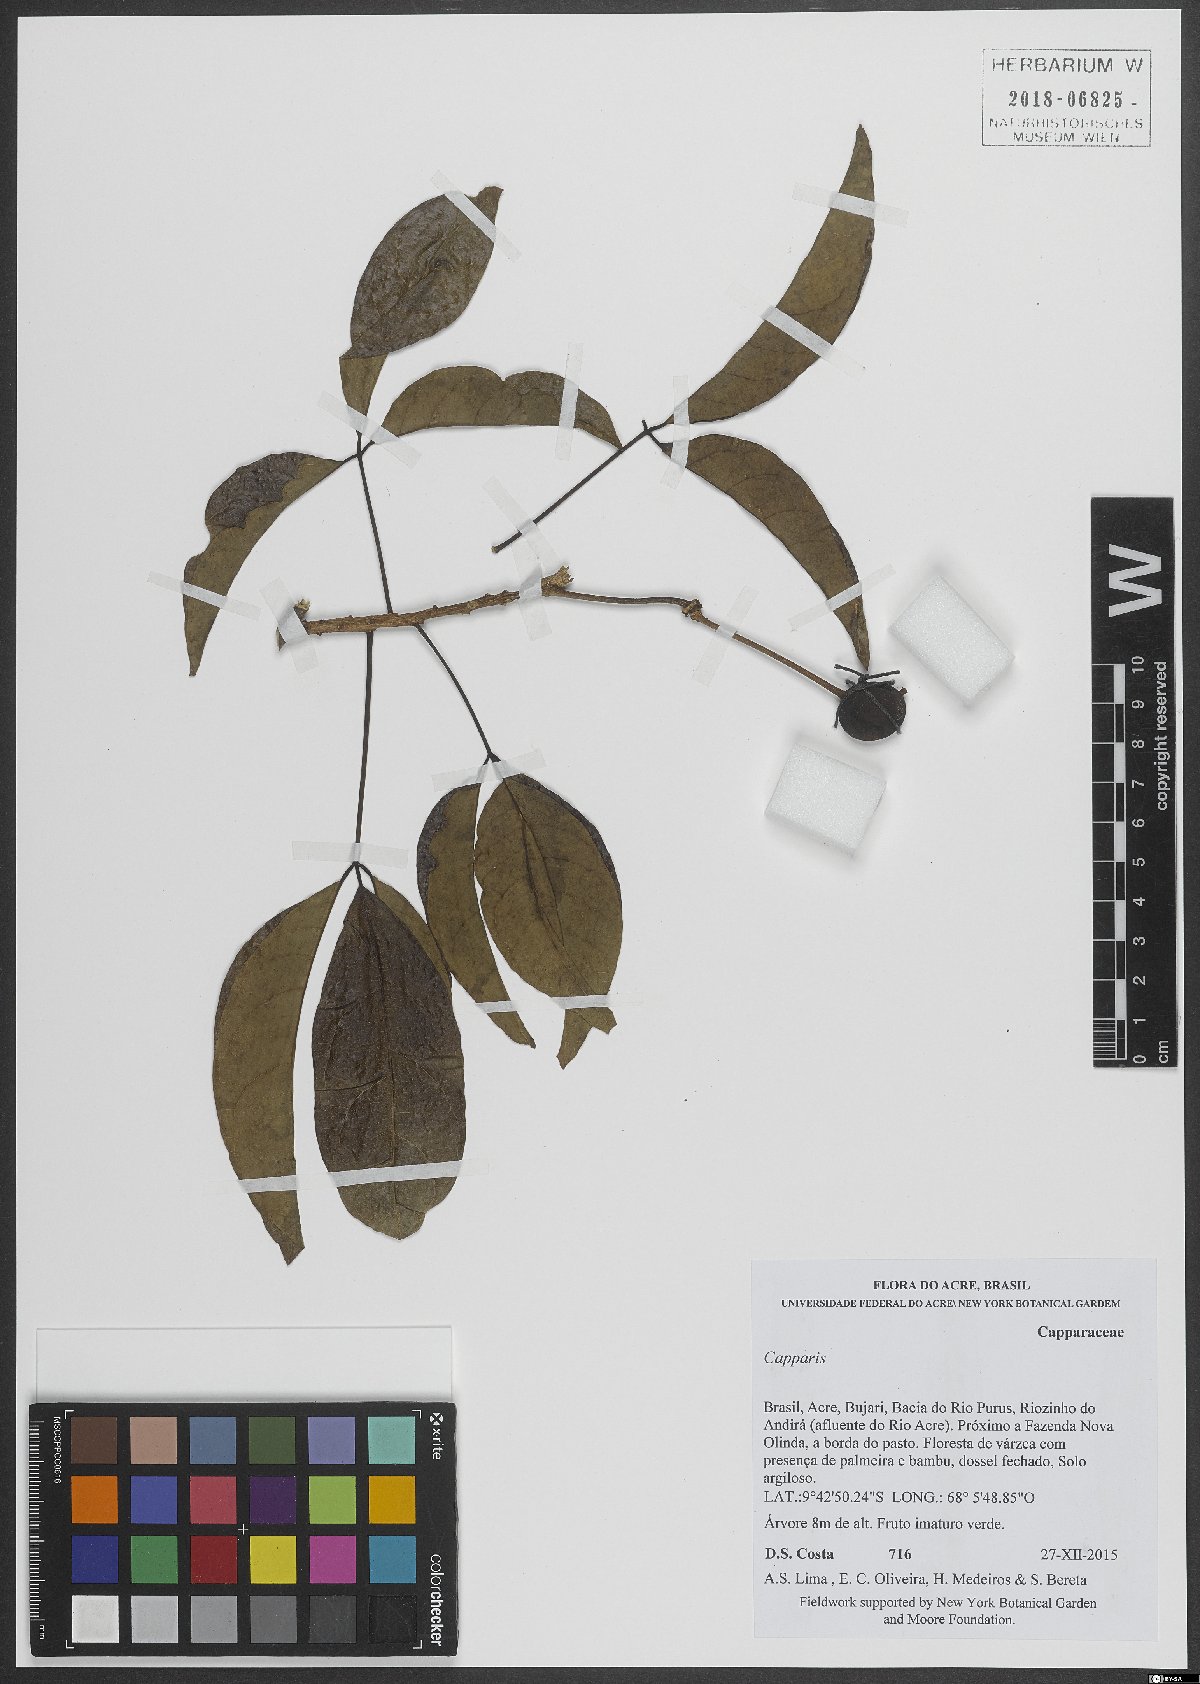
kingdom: Plantae
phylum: Tracheophyta
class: Magnoliopsida
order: Brassicales
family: Capparaceae
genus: Capparis
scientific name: Capparis
